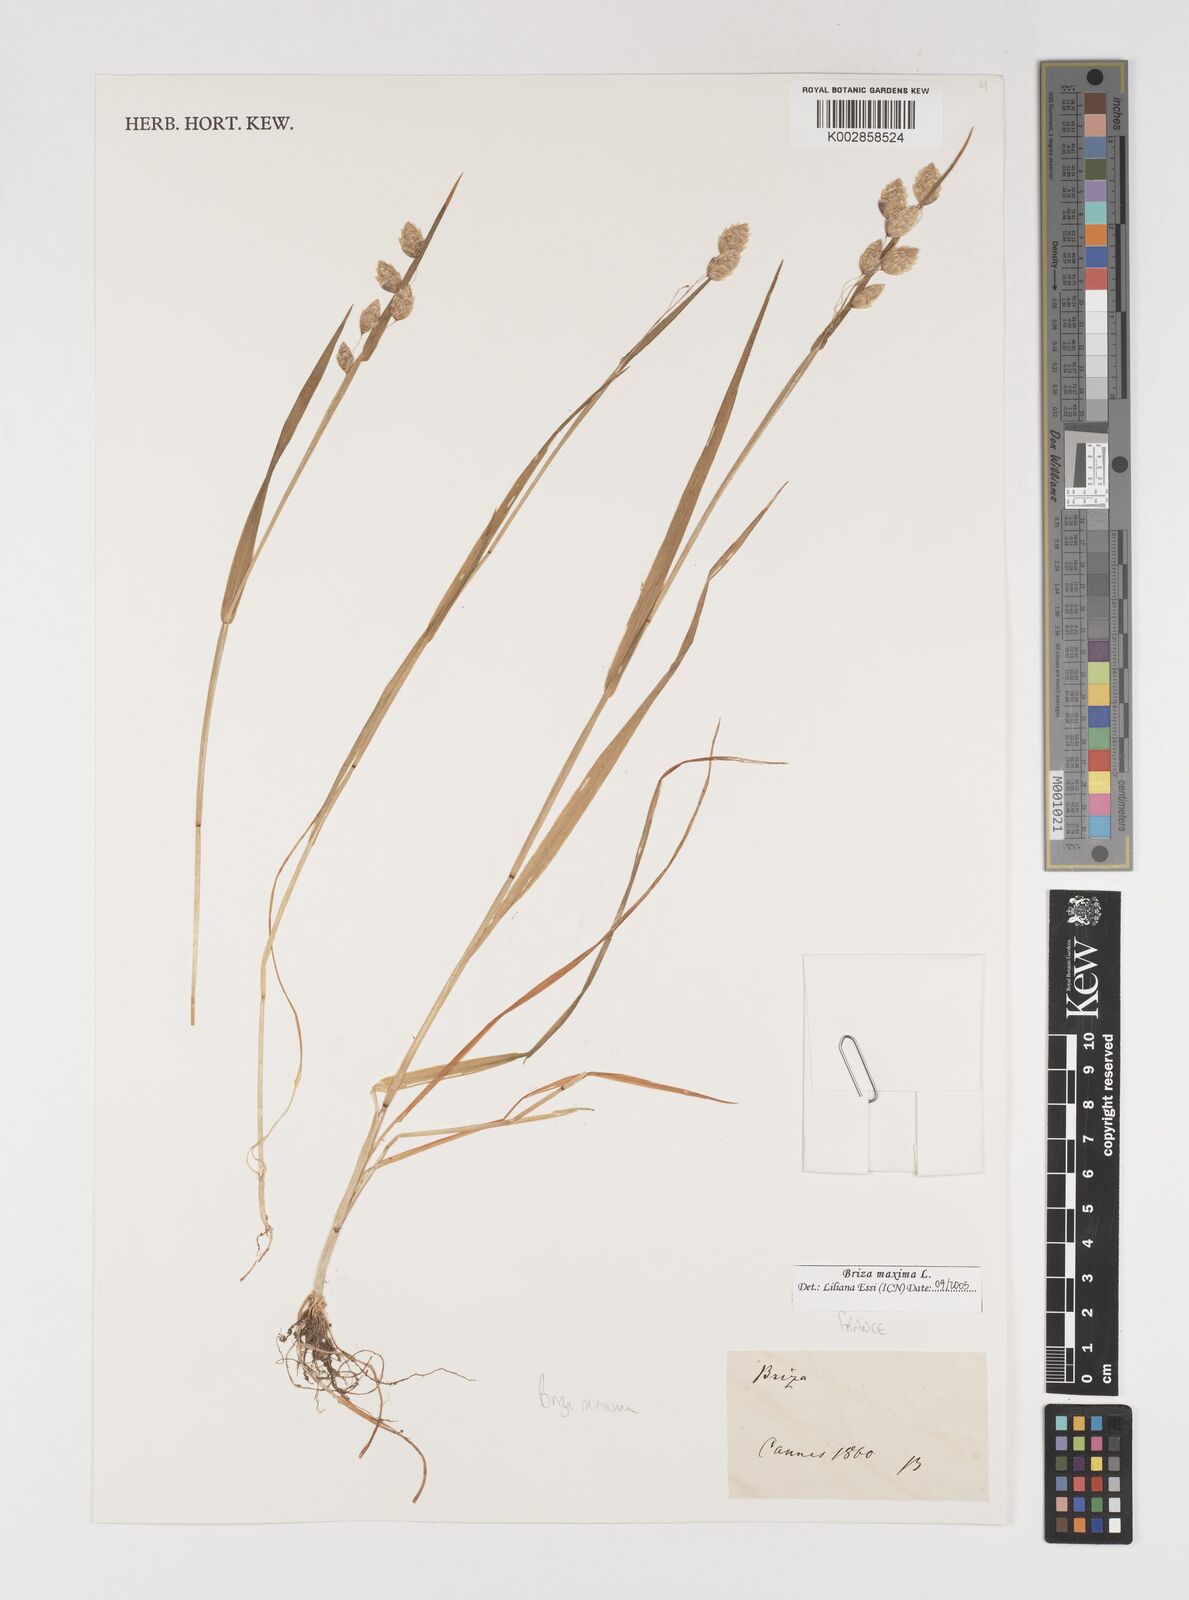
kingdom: Plantae
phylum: Tracheophyta
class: Liliopsida
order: Poales
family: Poaceae
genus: Briza
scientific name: Briza maxima
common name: Big quakinggrass
